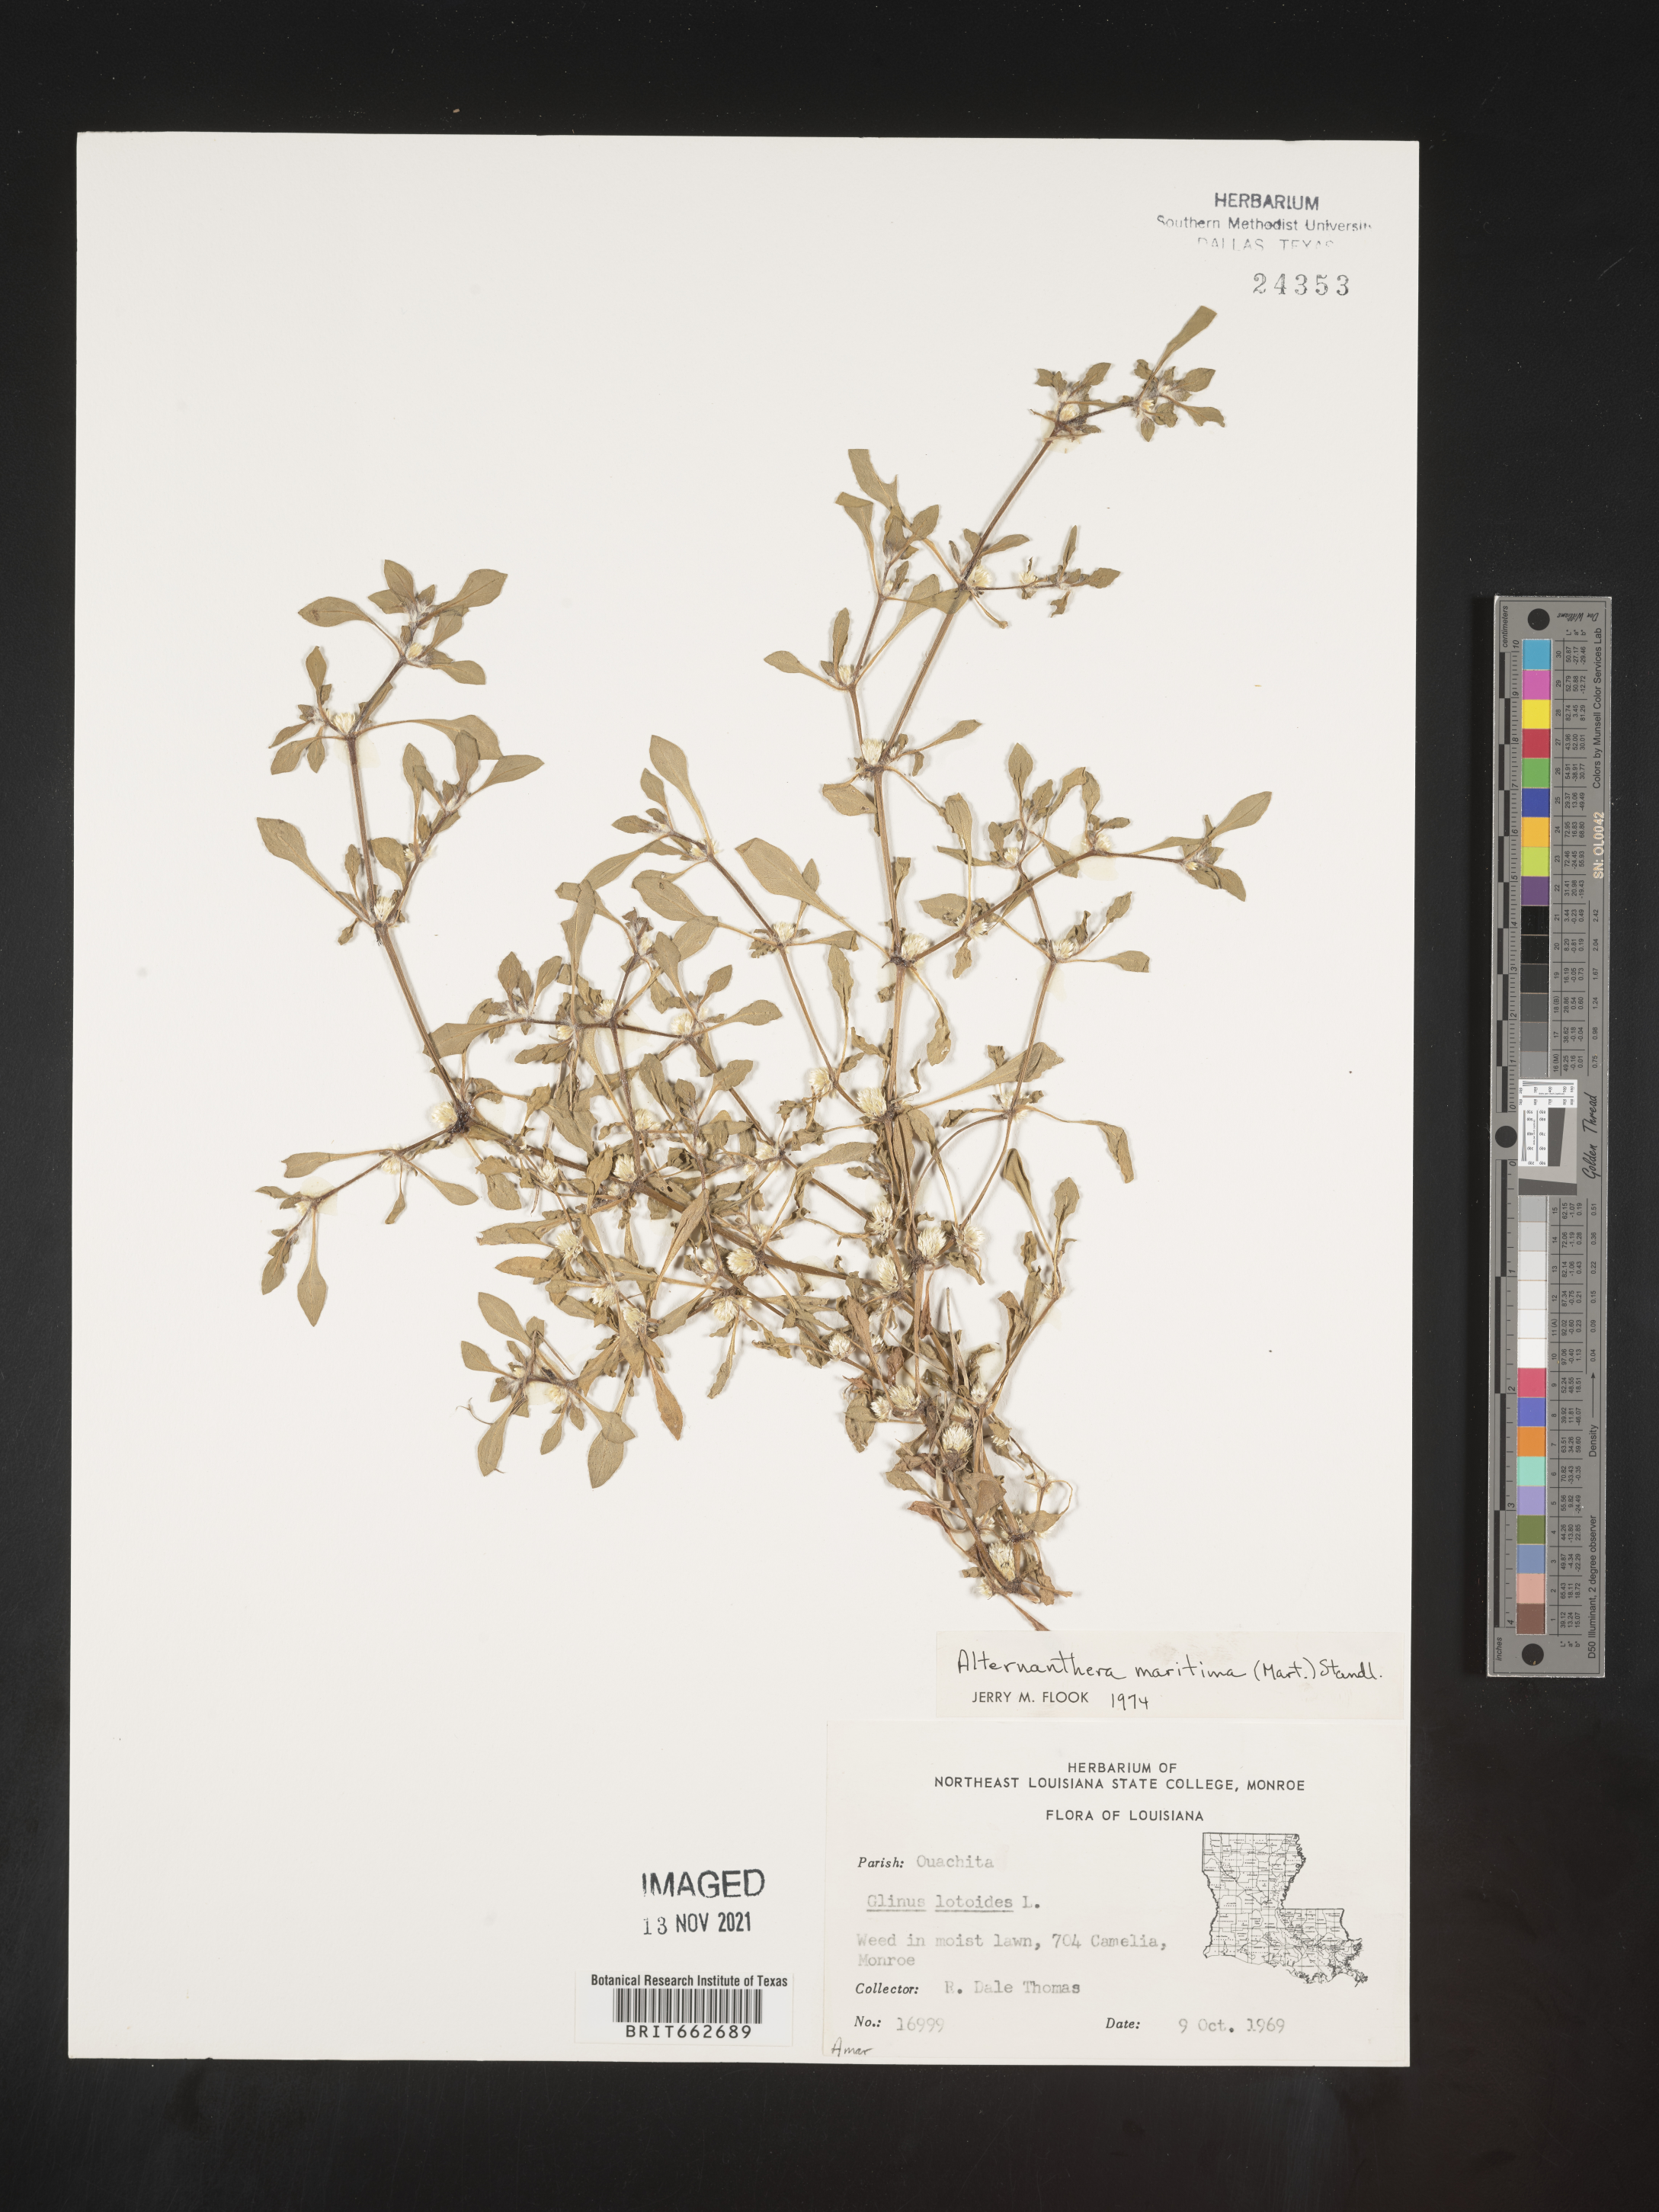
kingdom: Plantae
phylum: Tracheophyta
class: Magnoliopsida
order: Caryophyllales
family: Amaranthaceae
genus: Alternanthera
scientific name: Alternanthera littoralis
